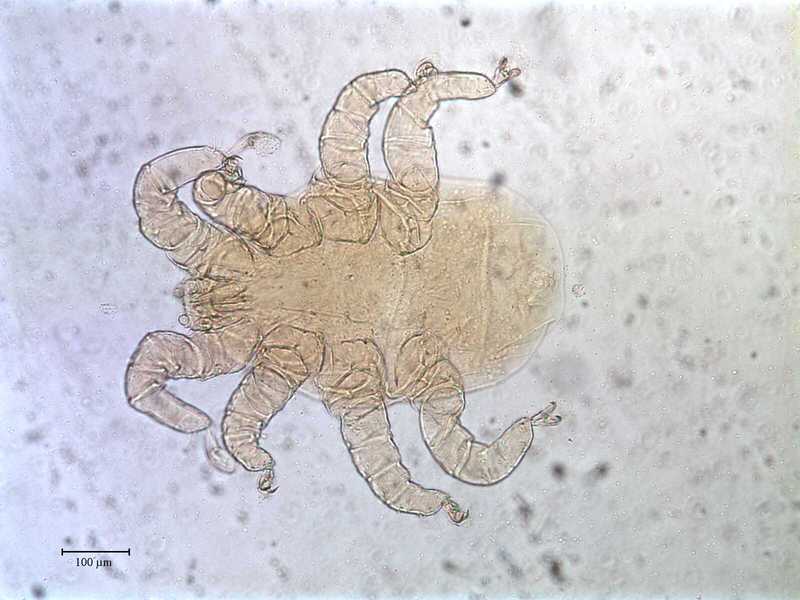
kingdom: Animalia
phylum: Arthropoda
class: Arachnida
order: Mesostigmata
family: Rhinonyssidae
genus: Sternostoma
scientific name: Sternostoma technaui
